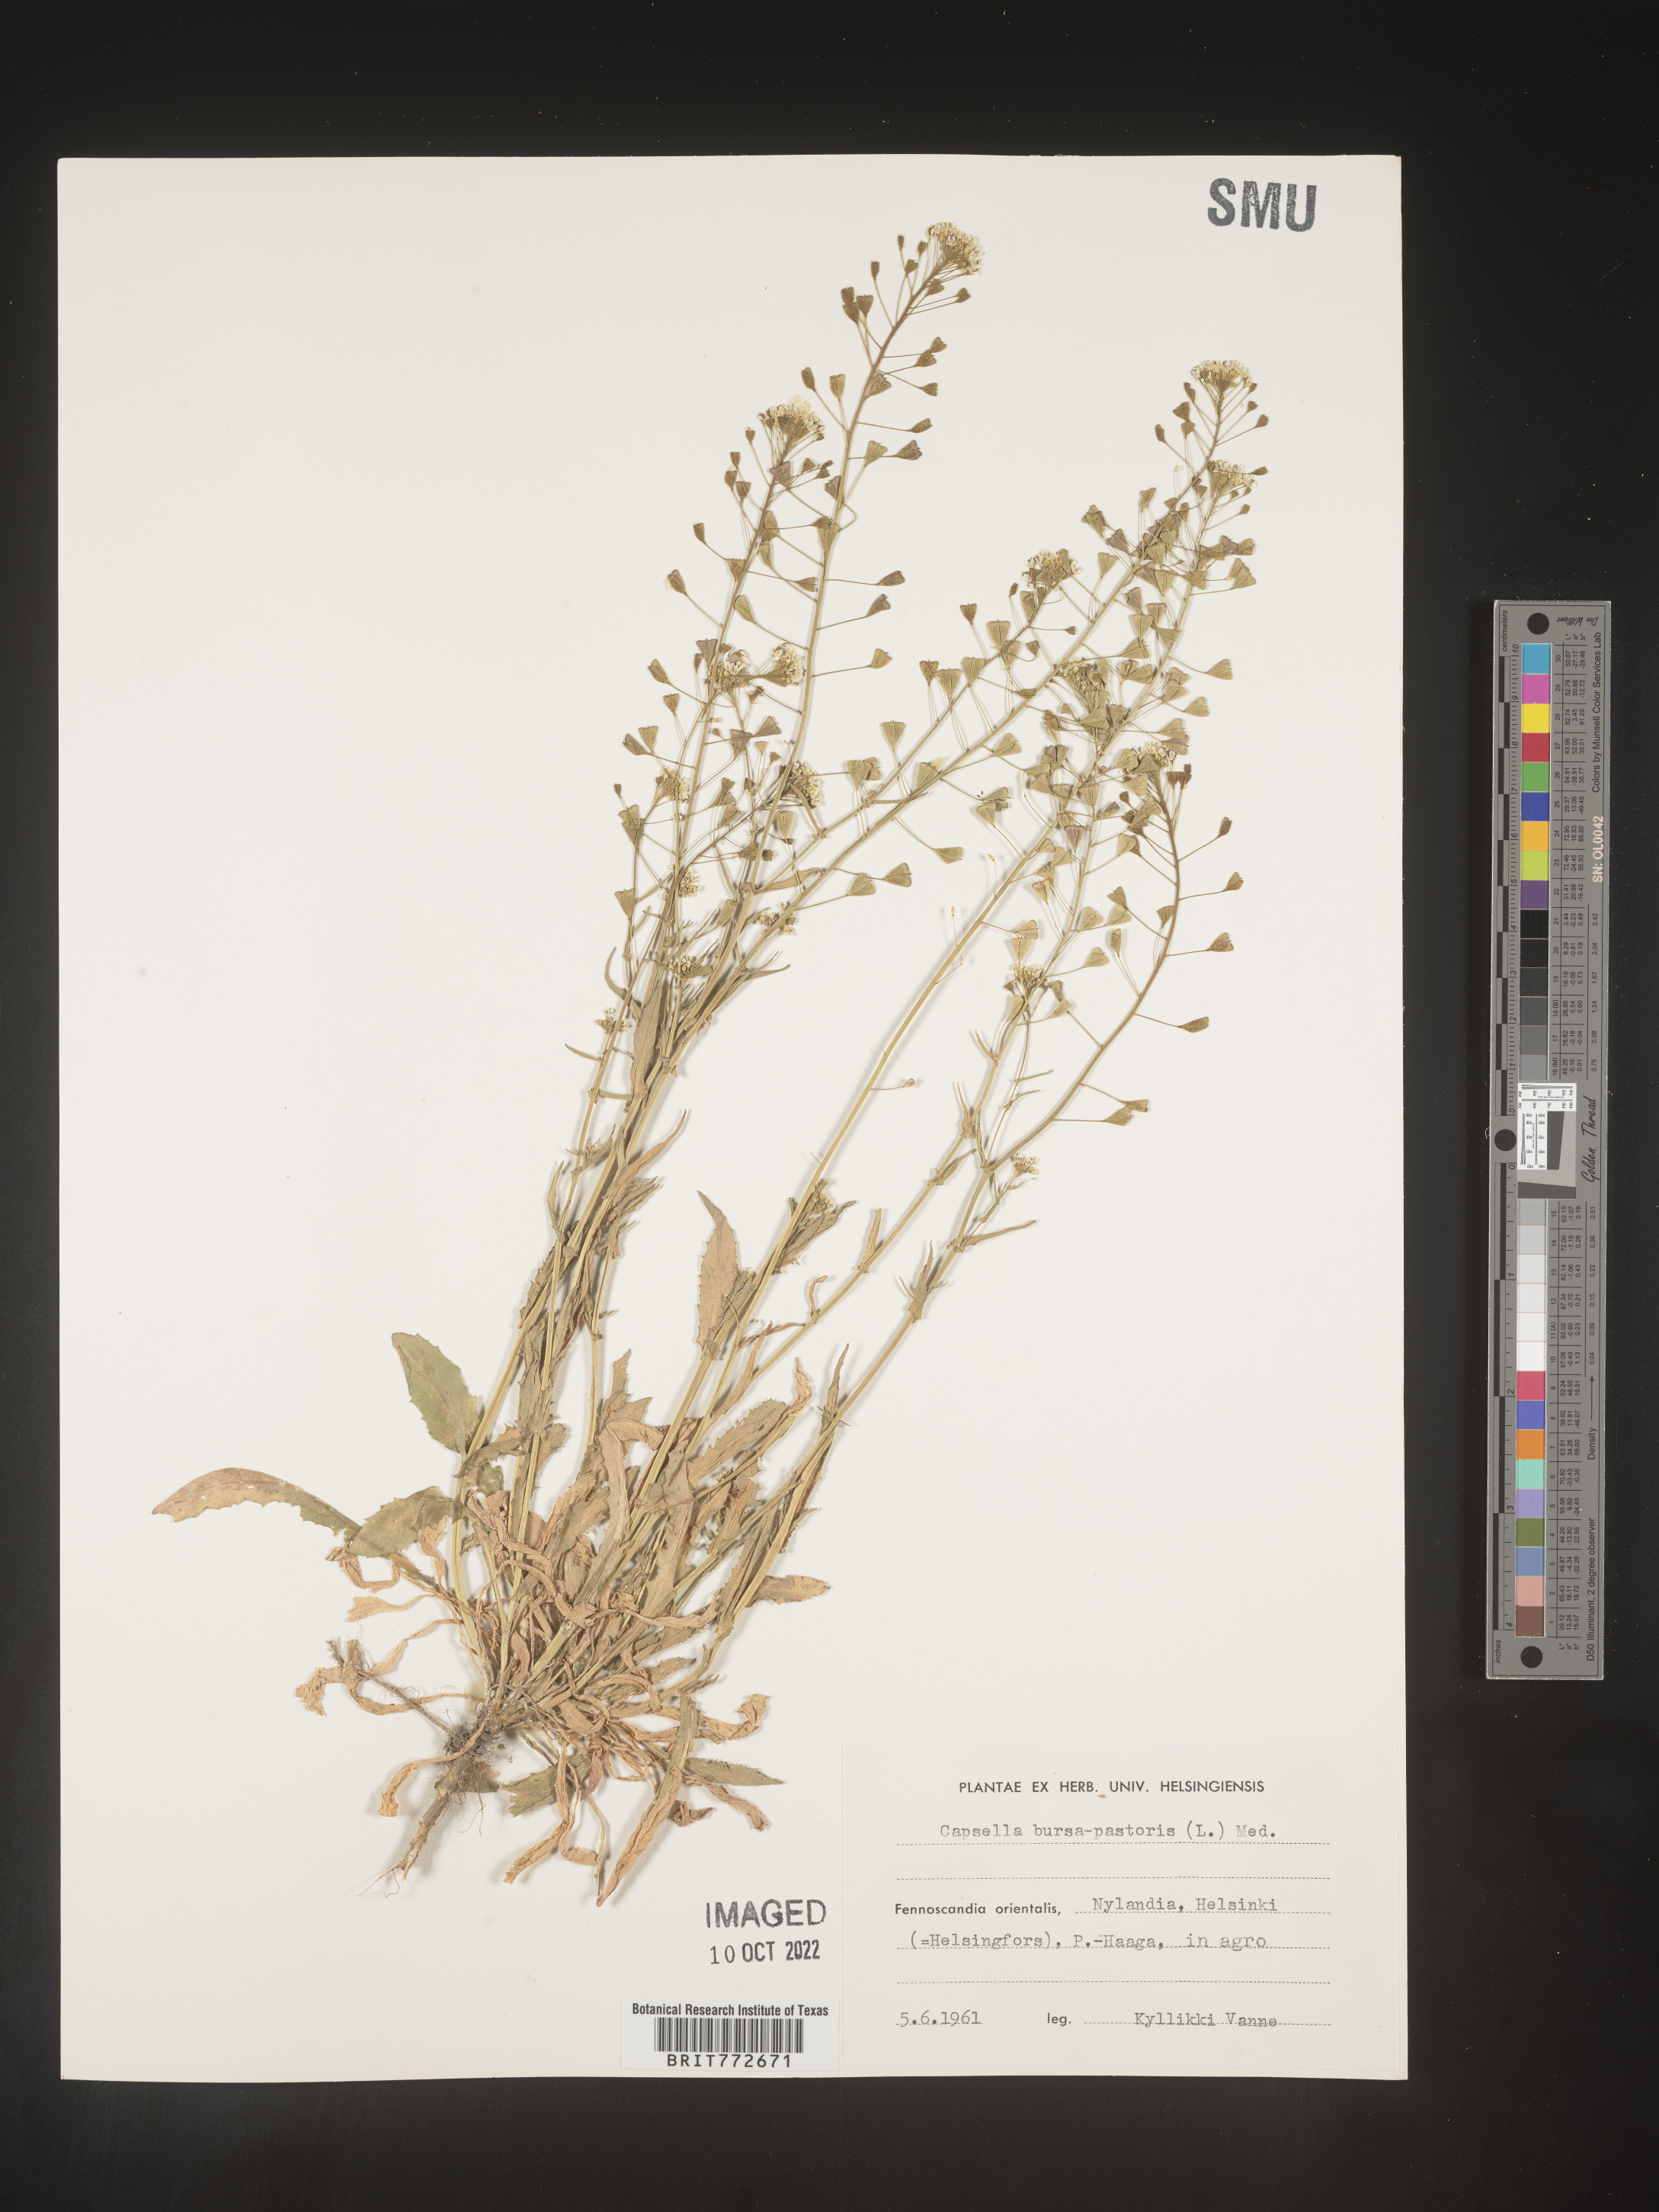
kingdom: Plantae
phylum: Tracheophyta
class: Magnoliopsida
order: Brassicales
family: Brassicaceae
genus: Capsella
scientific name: Capsella
